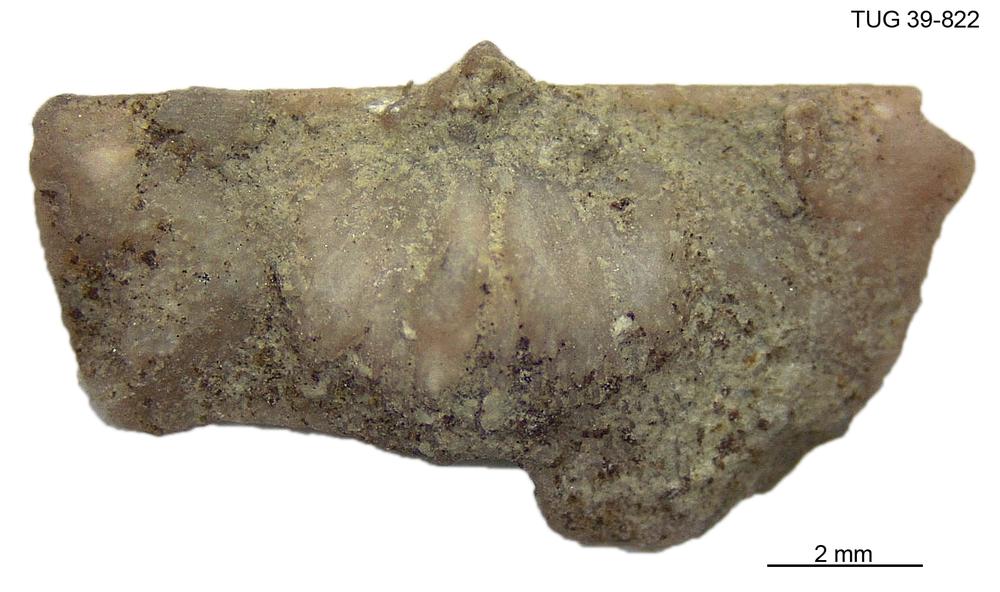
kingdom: Animalia
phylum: Brachiopoda
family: Sowerbyellidae
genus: Sowerbyella
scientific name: Sowerbyella
